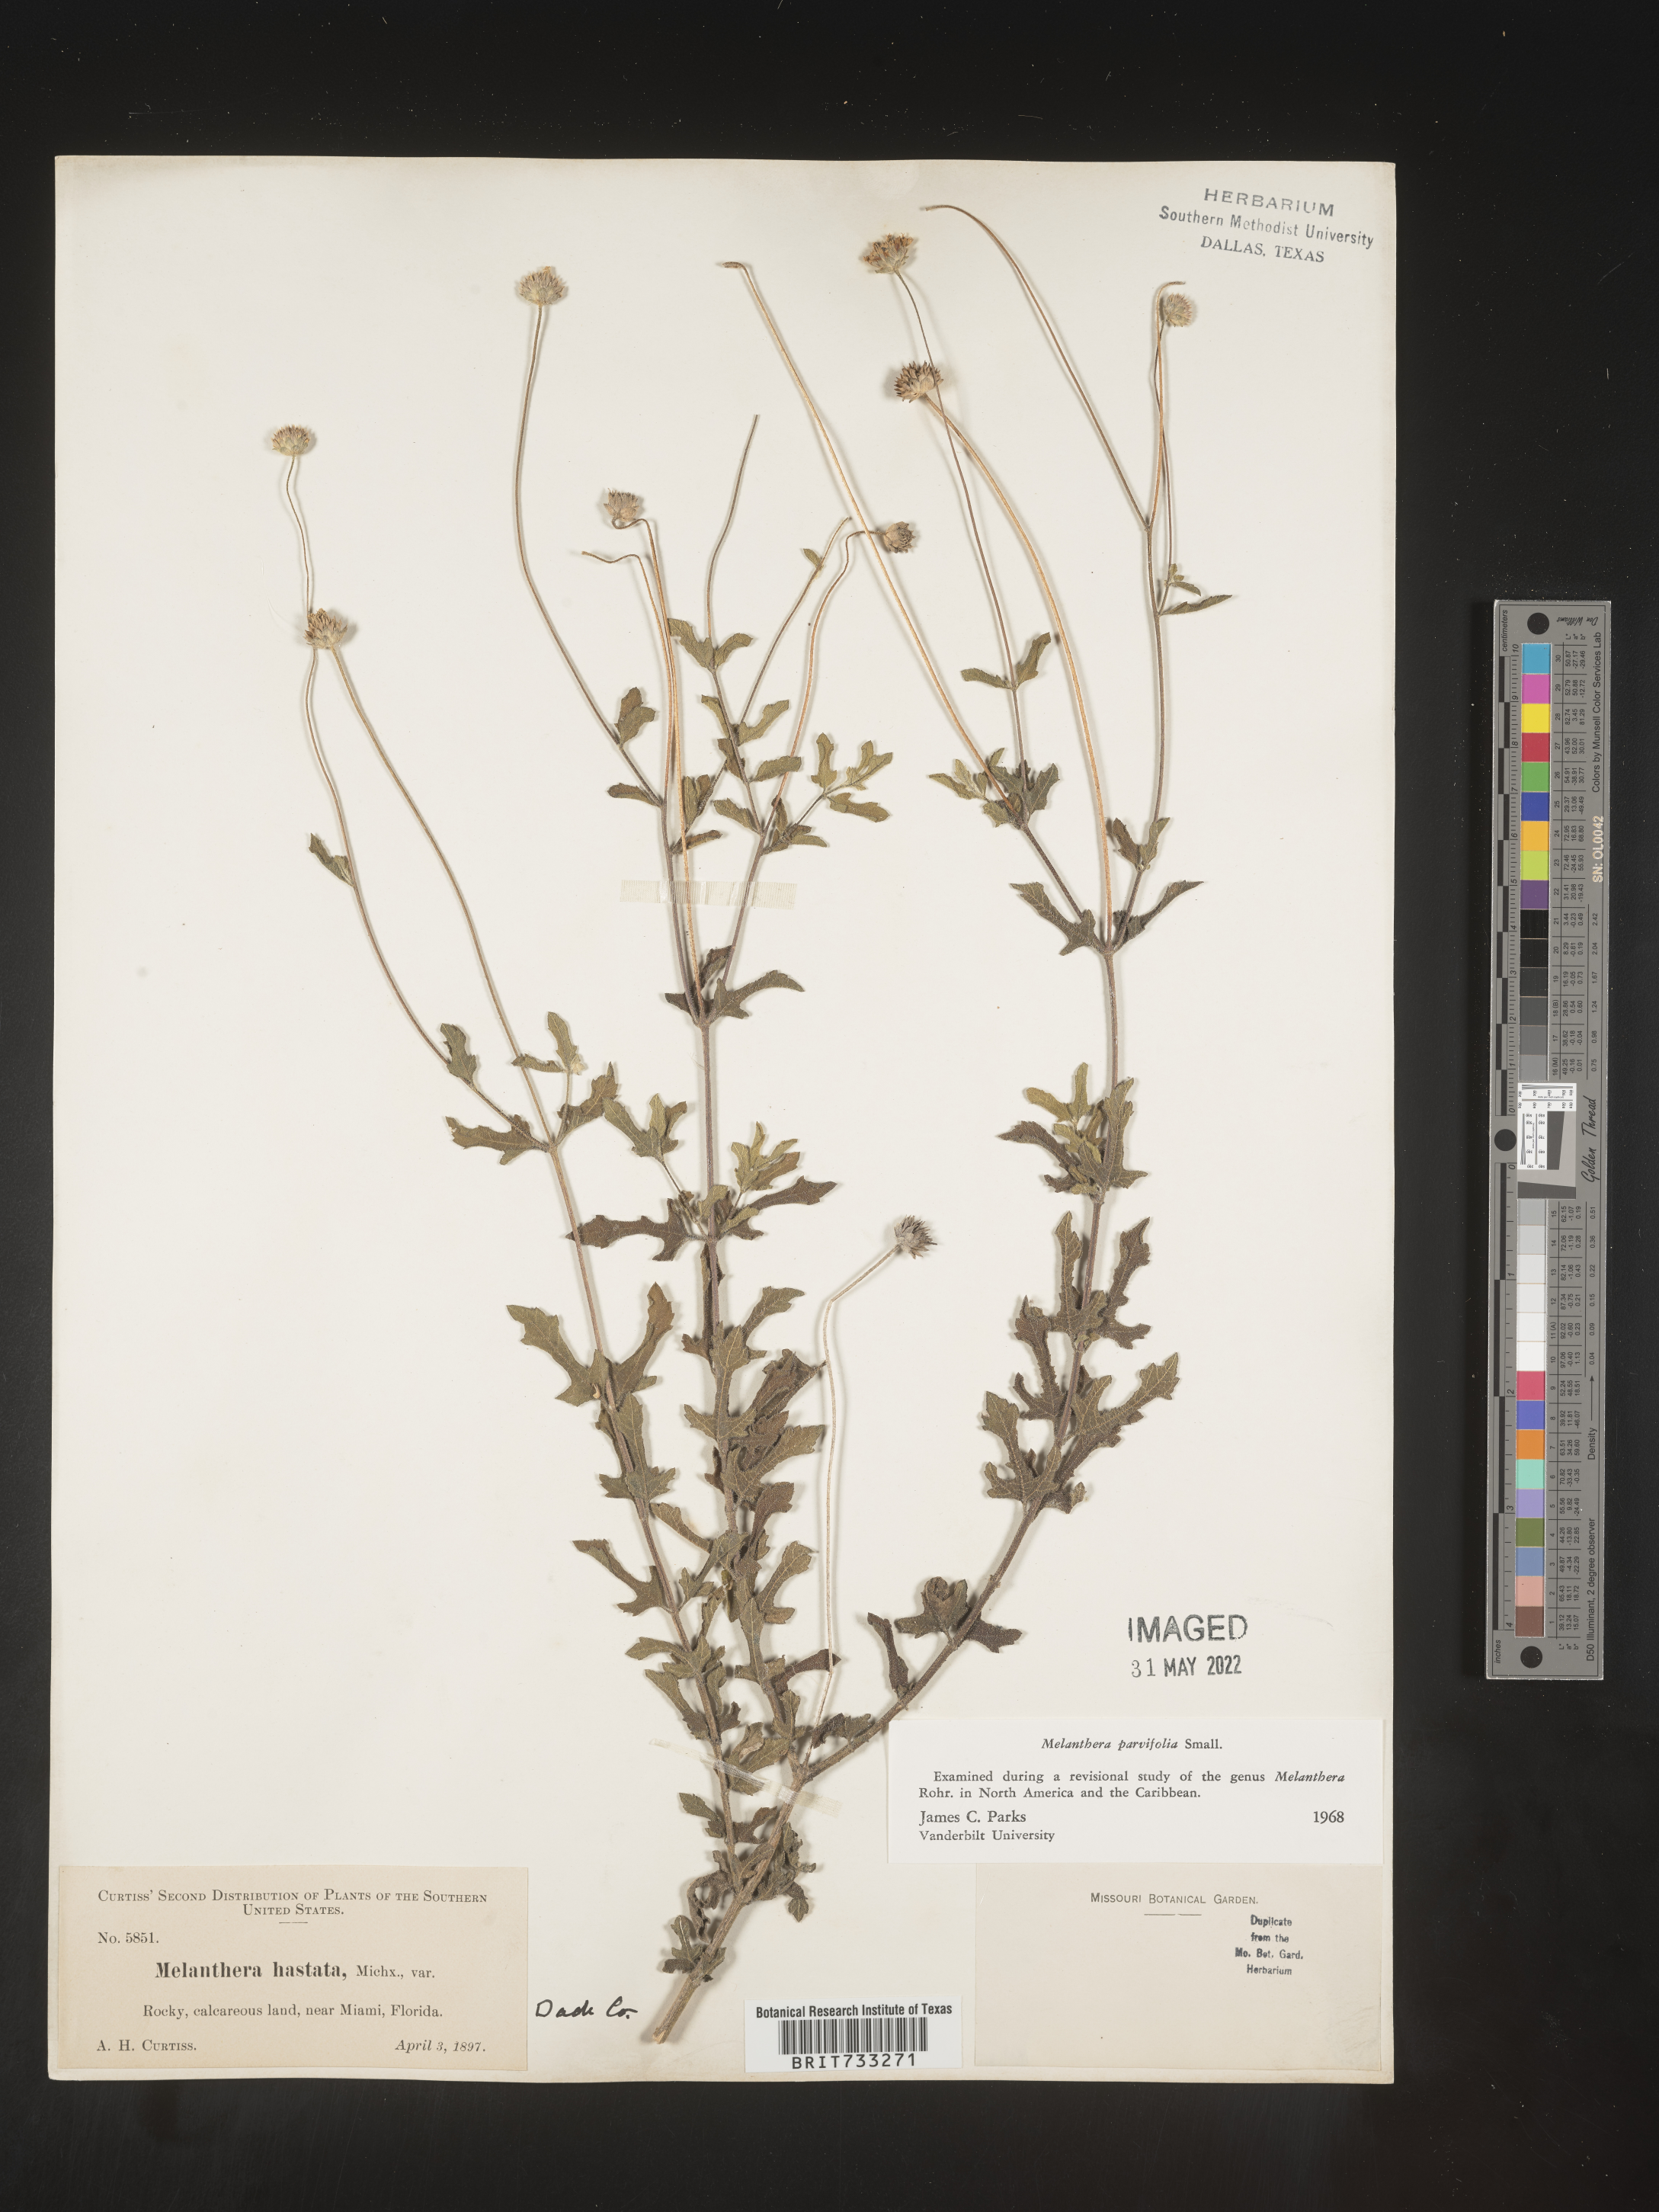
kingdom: Plantae
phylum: Tracheophyta
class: Magnoliopsida
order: Asterales
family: Asteraceae
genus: Melanthera
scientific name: Melanthera parvifolia
